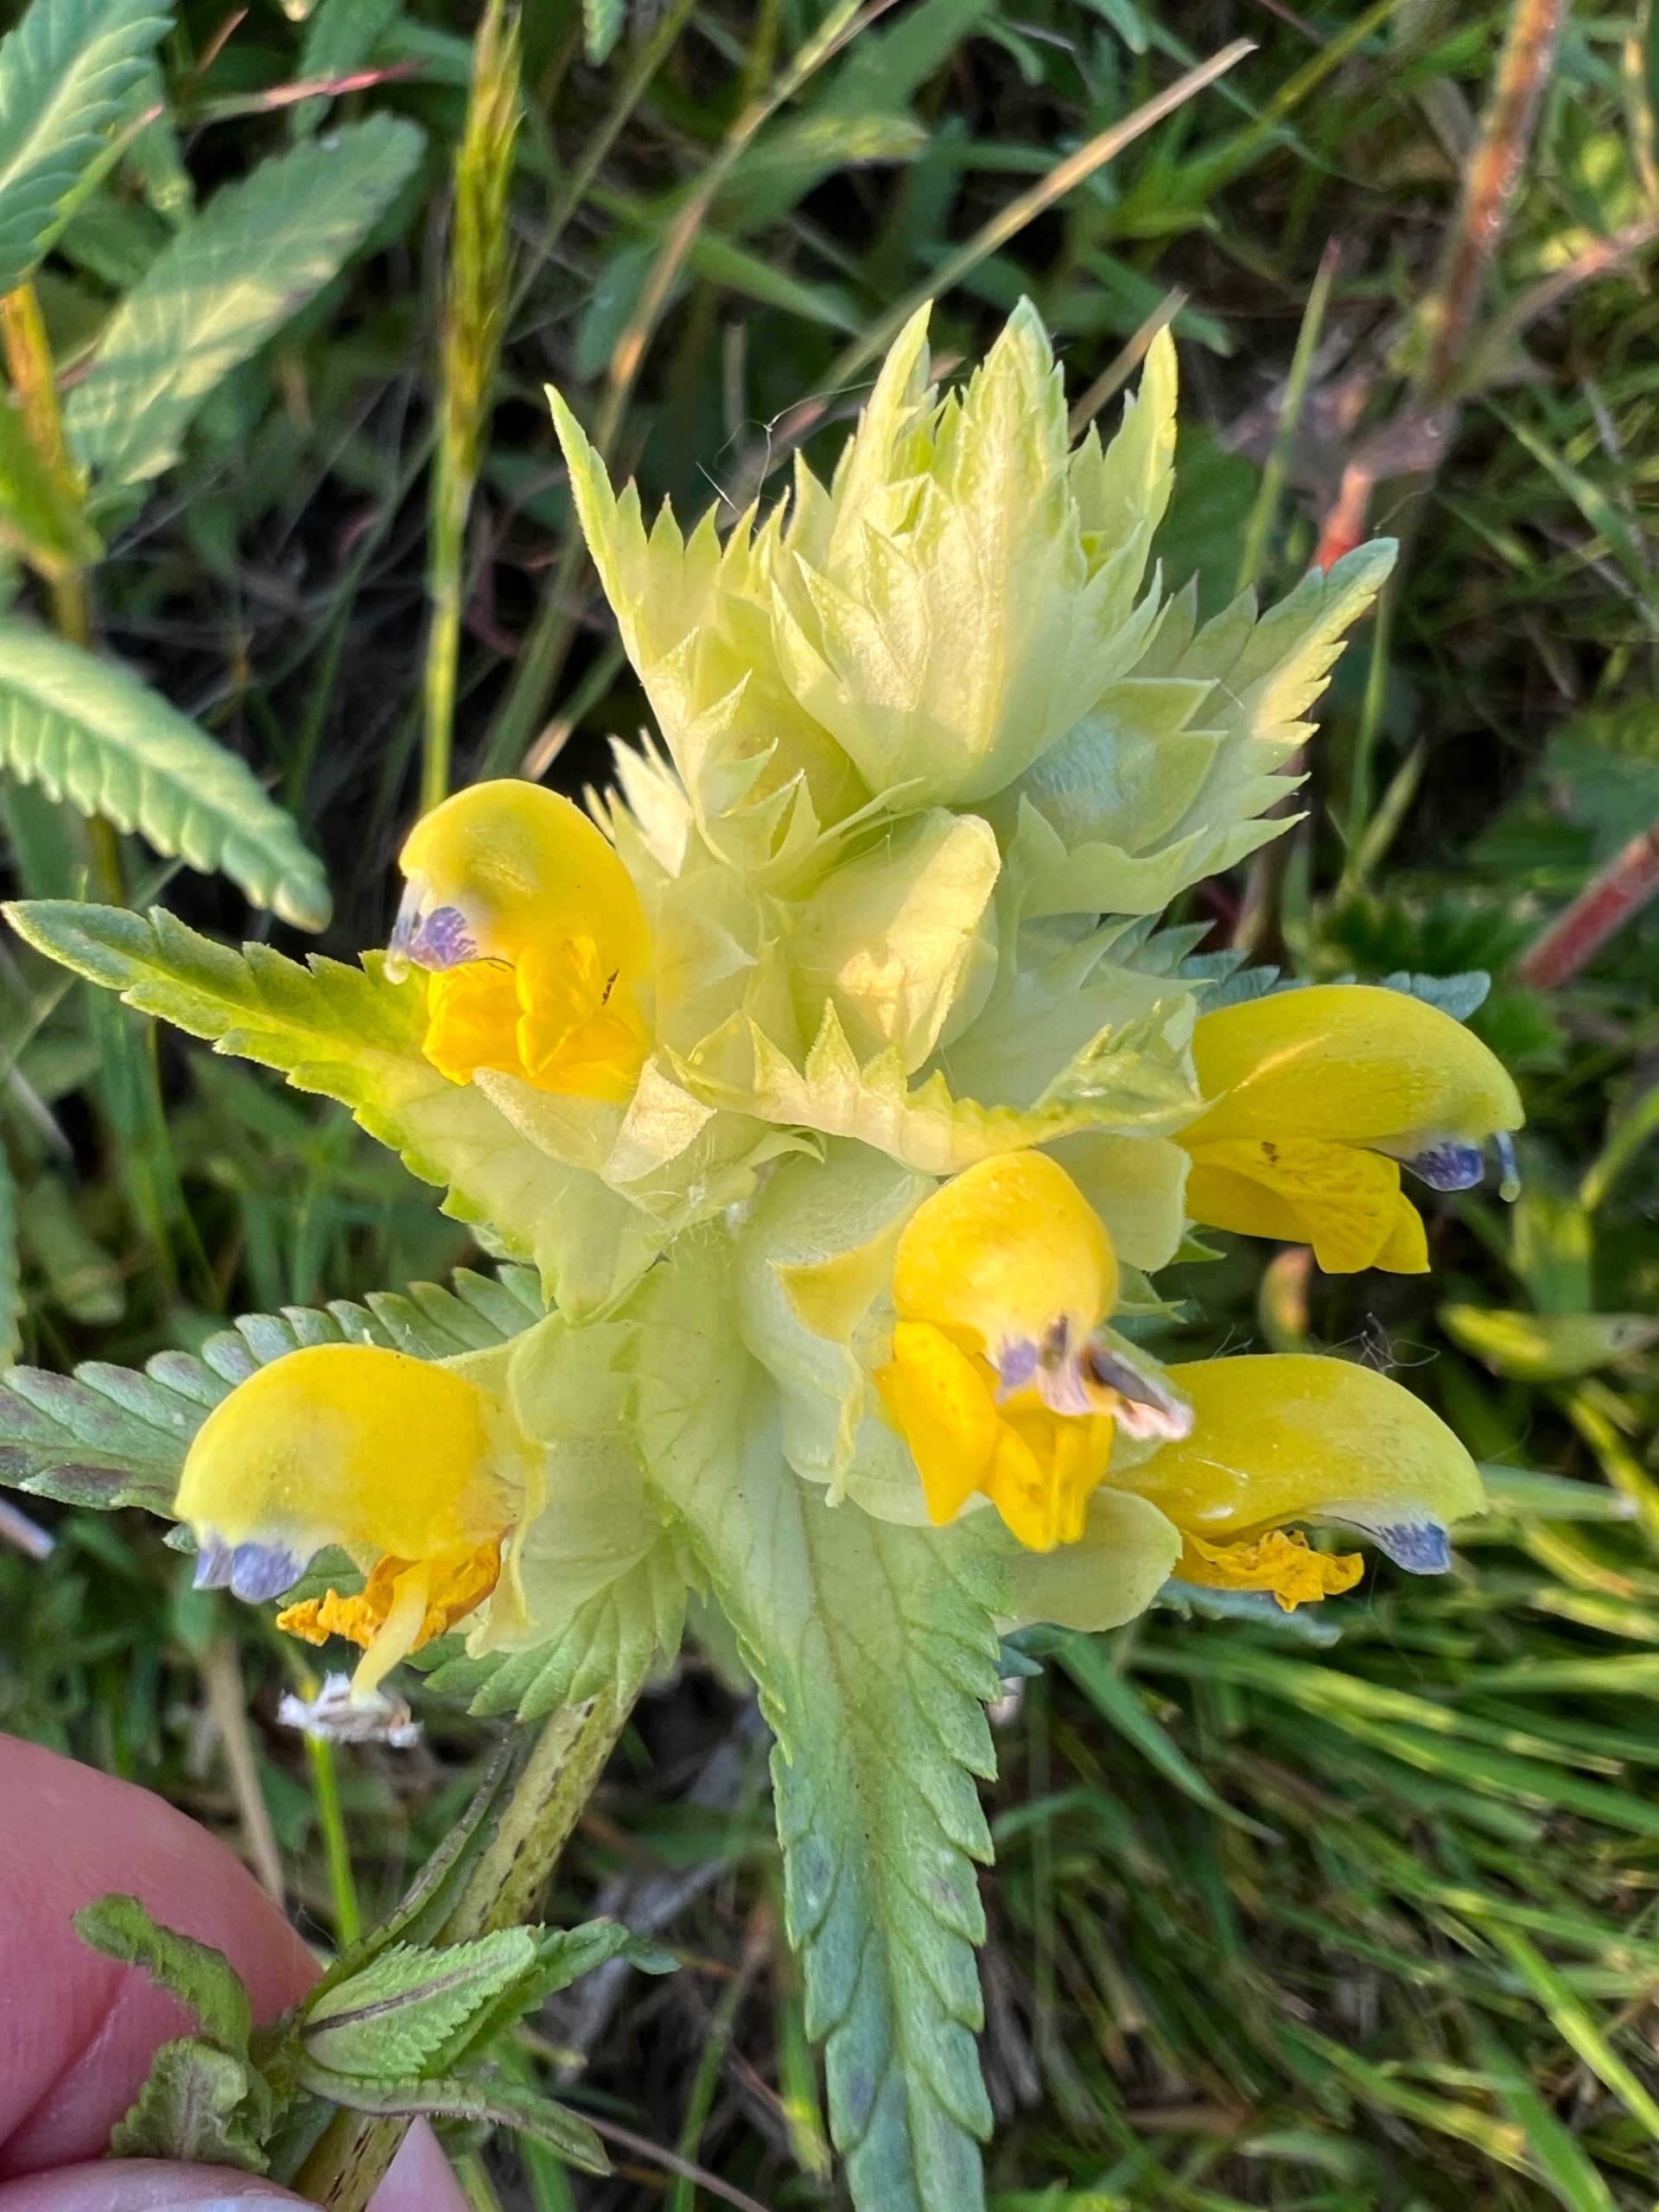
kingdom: Plantae
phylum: Tracheophyta
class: Magnoliopsida
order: Lamiales
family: Orobanchaceae
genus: Rhinanthus
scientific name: Rhinanthus
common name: Stor skjaller
